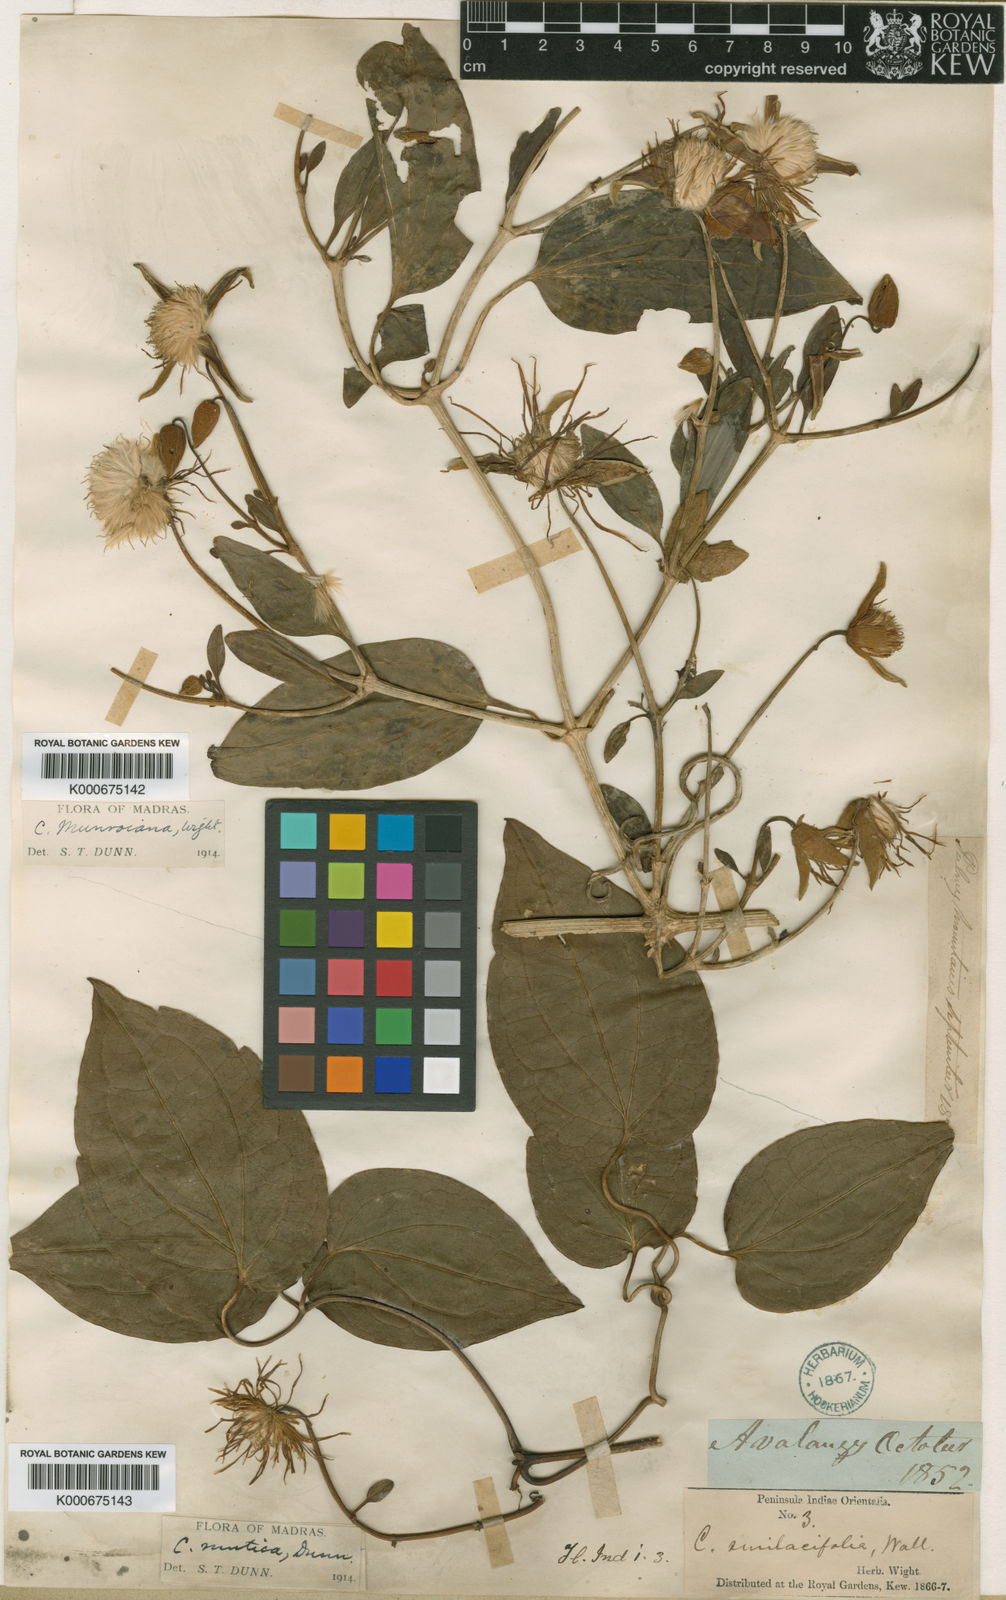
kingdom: Plantae
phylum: Tracheophyta
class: Magnoliopsida
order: Ranunculales
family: Ranunculaceae
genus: Clematis
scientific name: Clematis smilacifolia
